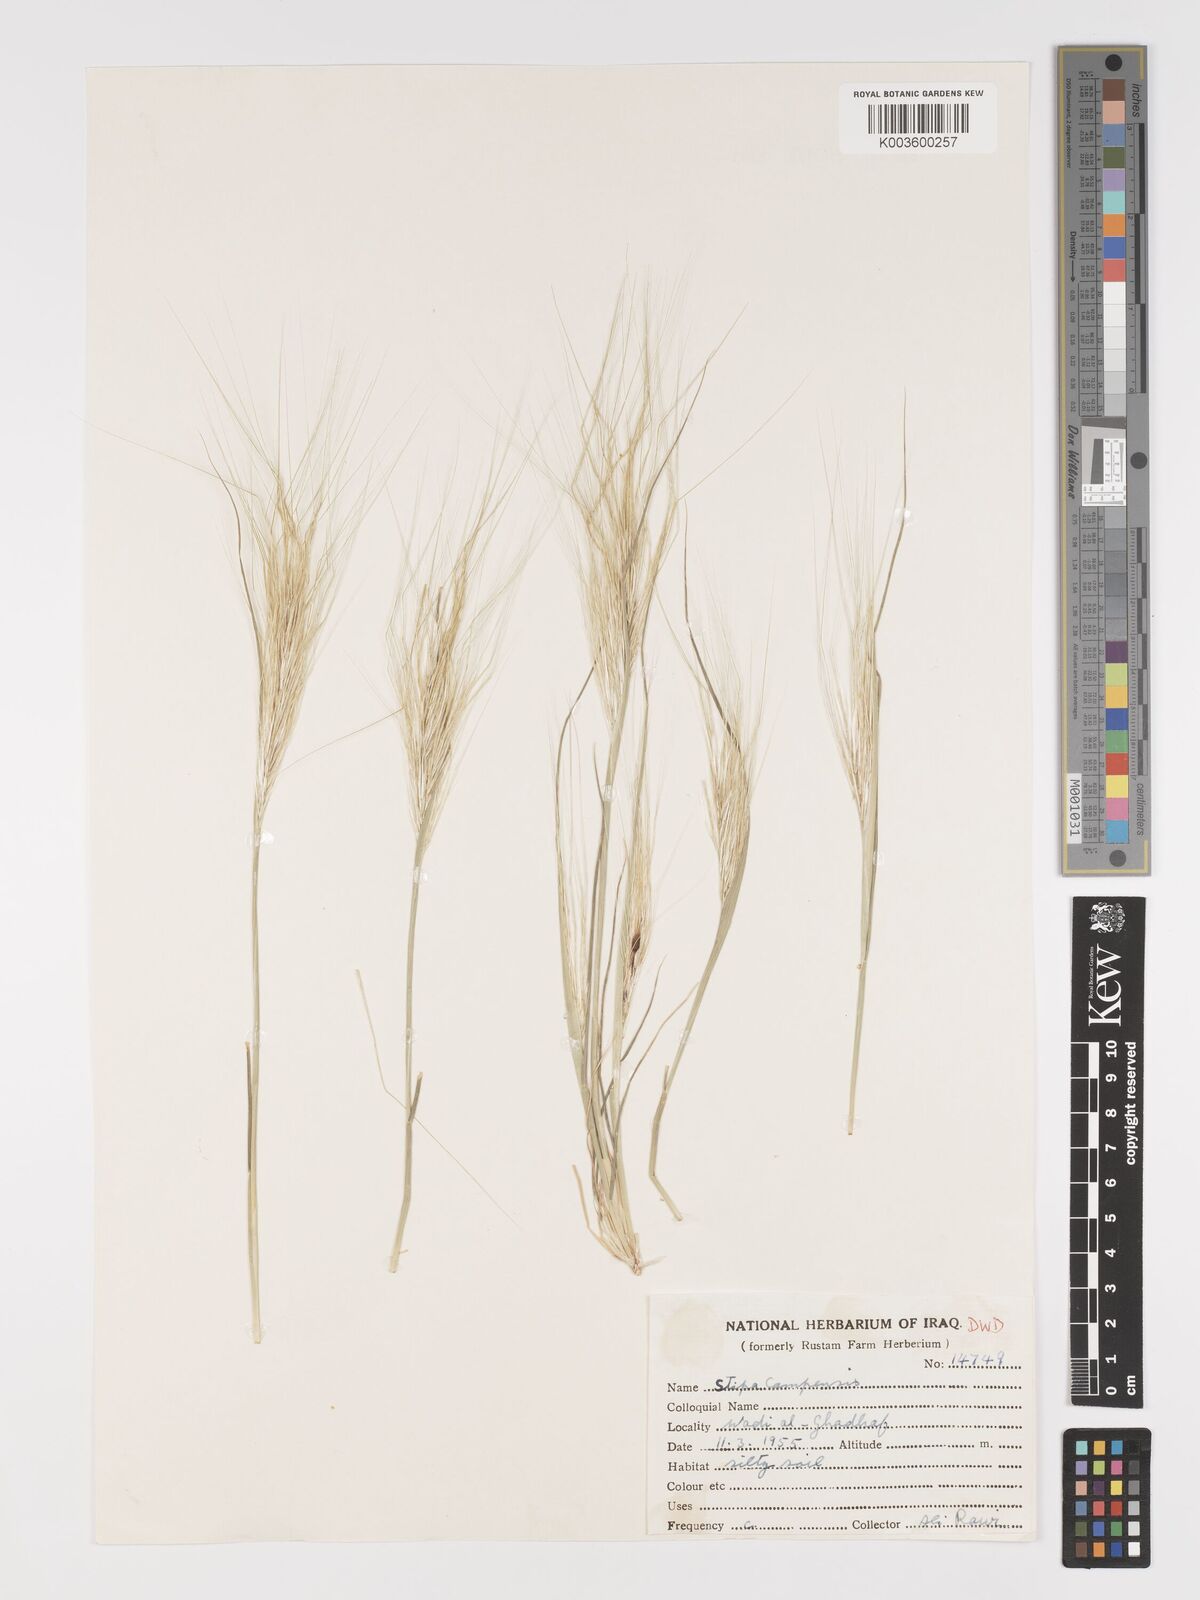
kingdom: Plantae
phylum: Tracheophyta
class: Liliopsida
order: Poales
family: Poaceae
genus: Stipellula
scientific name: Stipellula capensis
